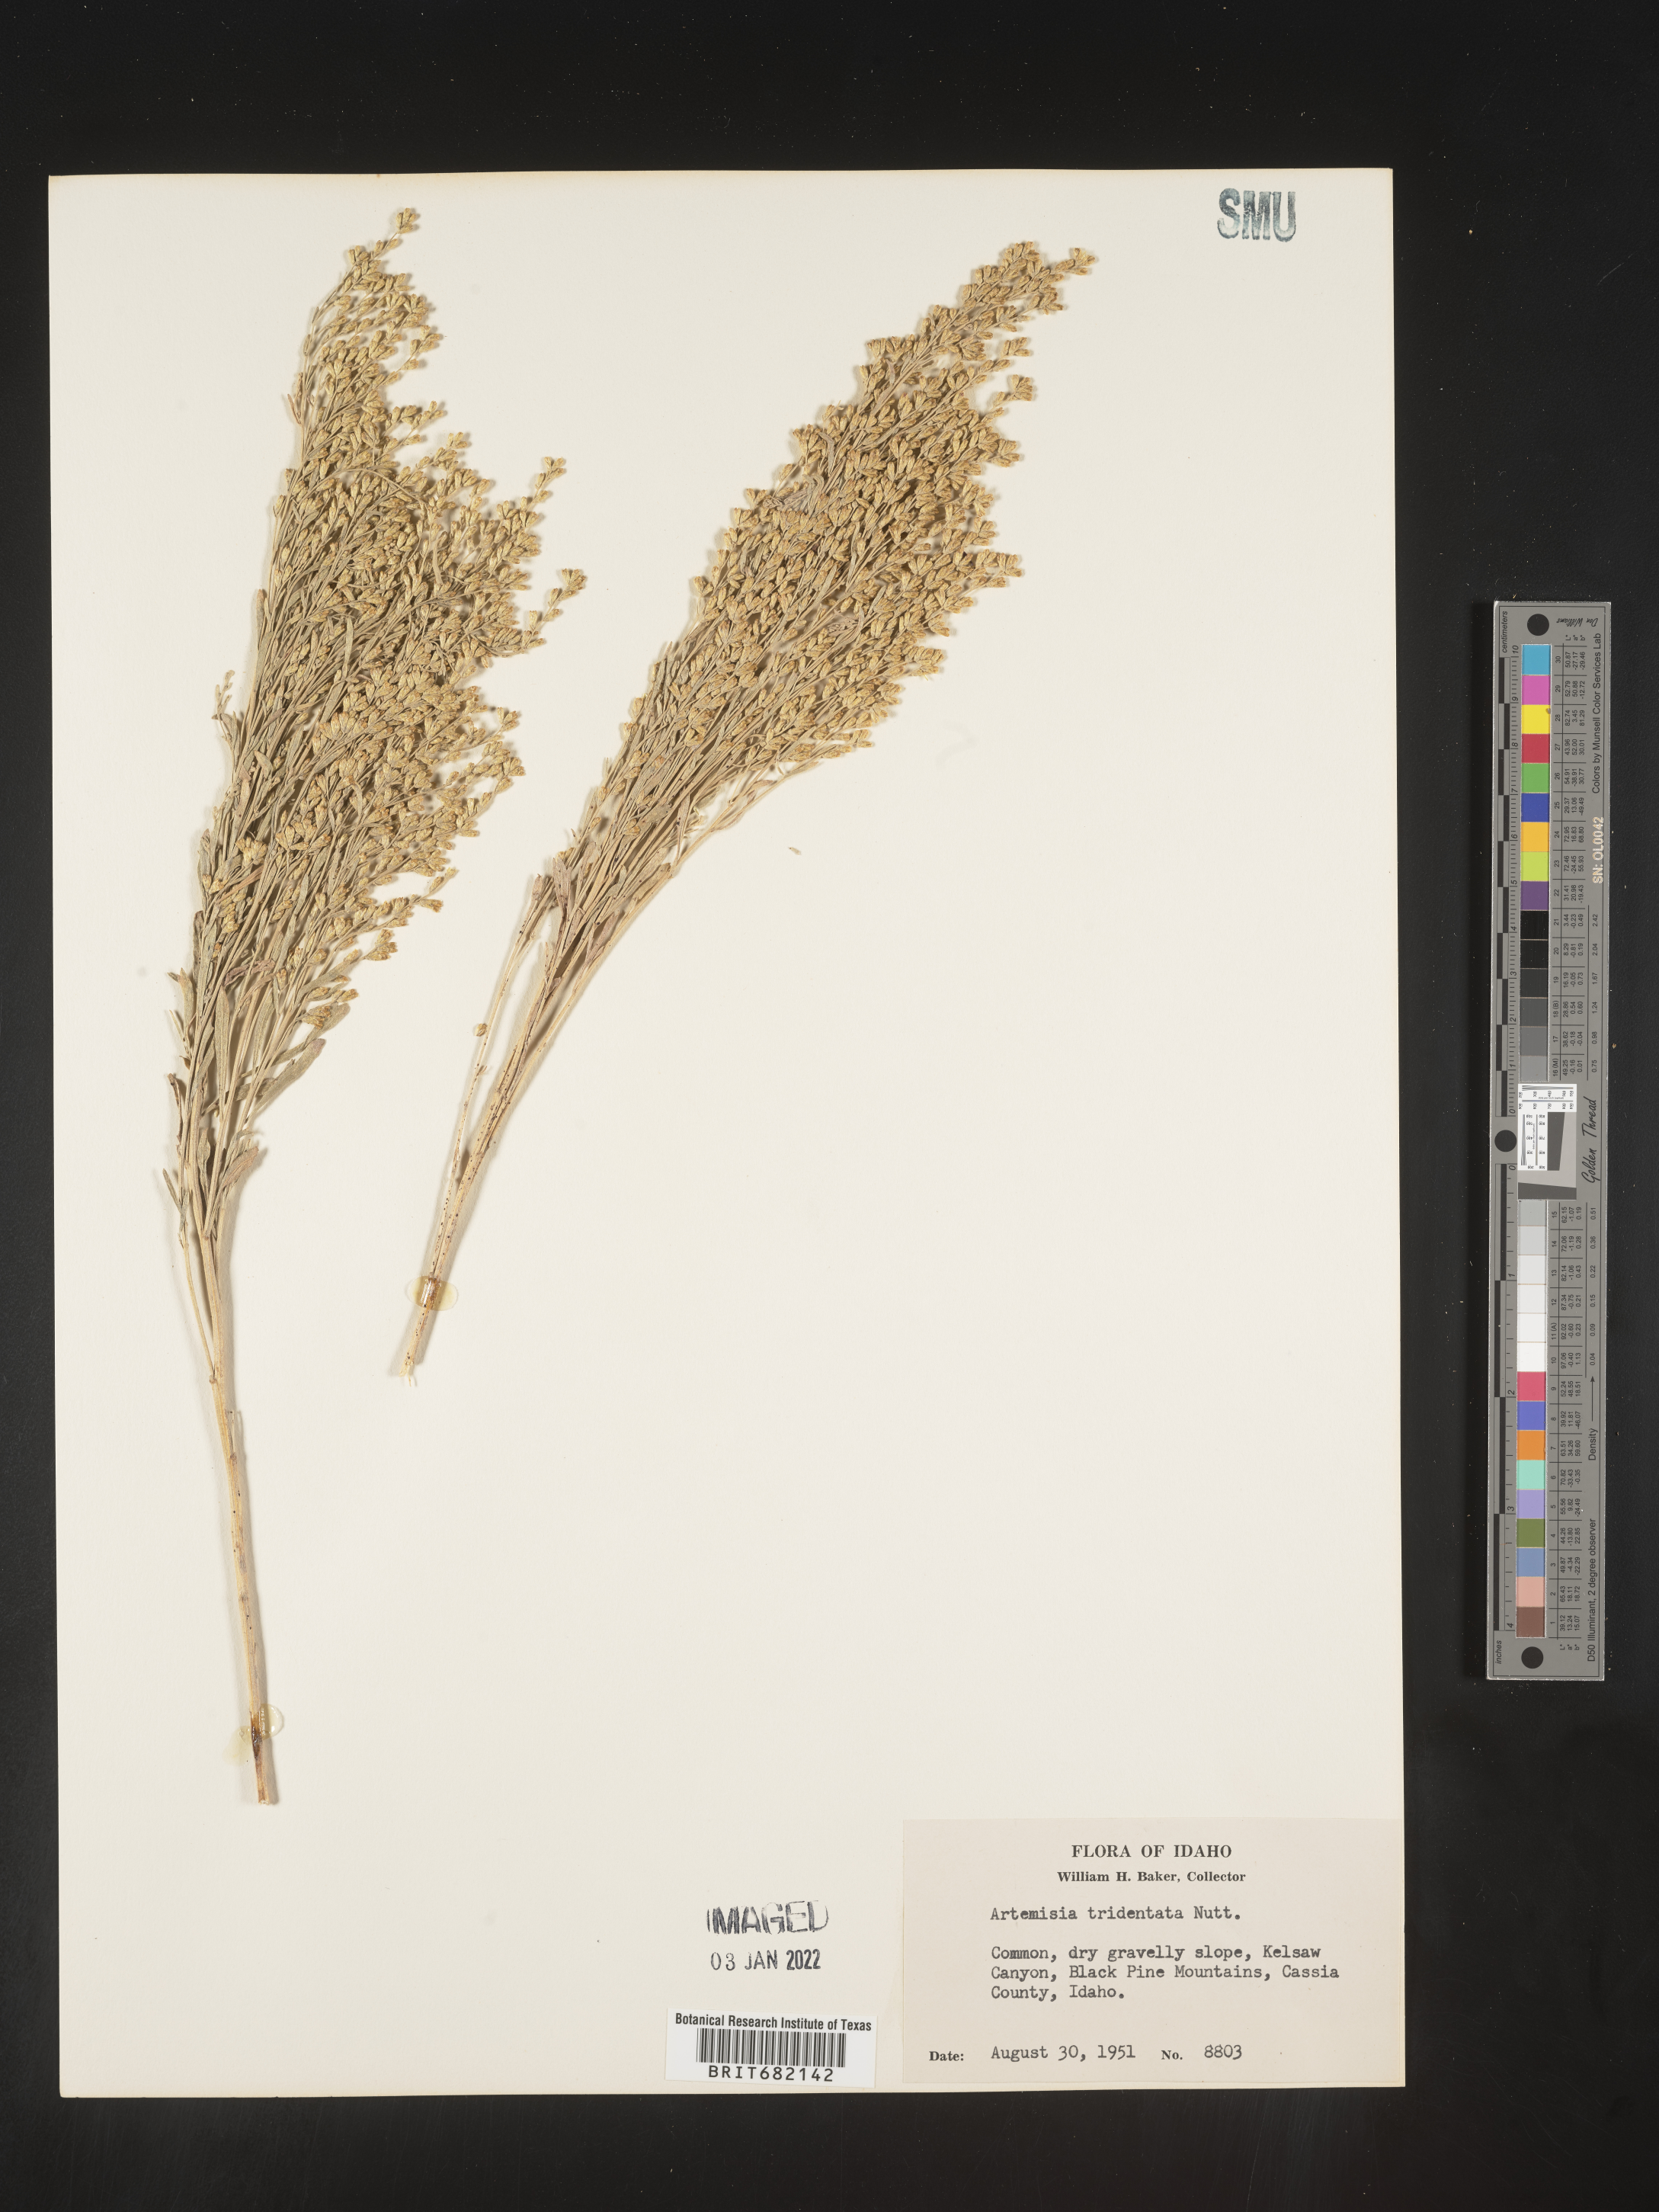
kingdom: Plantae
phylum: Tracheophyta
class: Magnoliopsida
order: Asterales
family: Asteraceae
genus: Artemisia
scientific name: Artemisia tridentata
